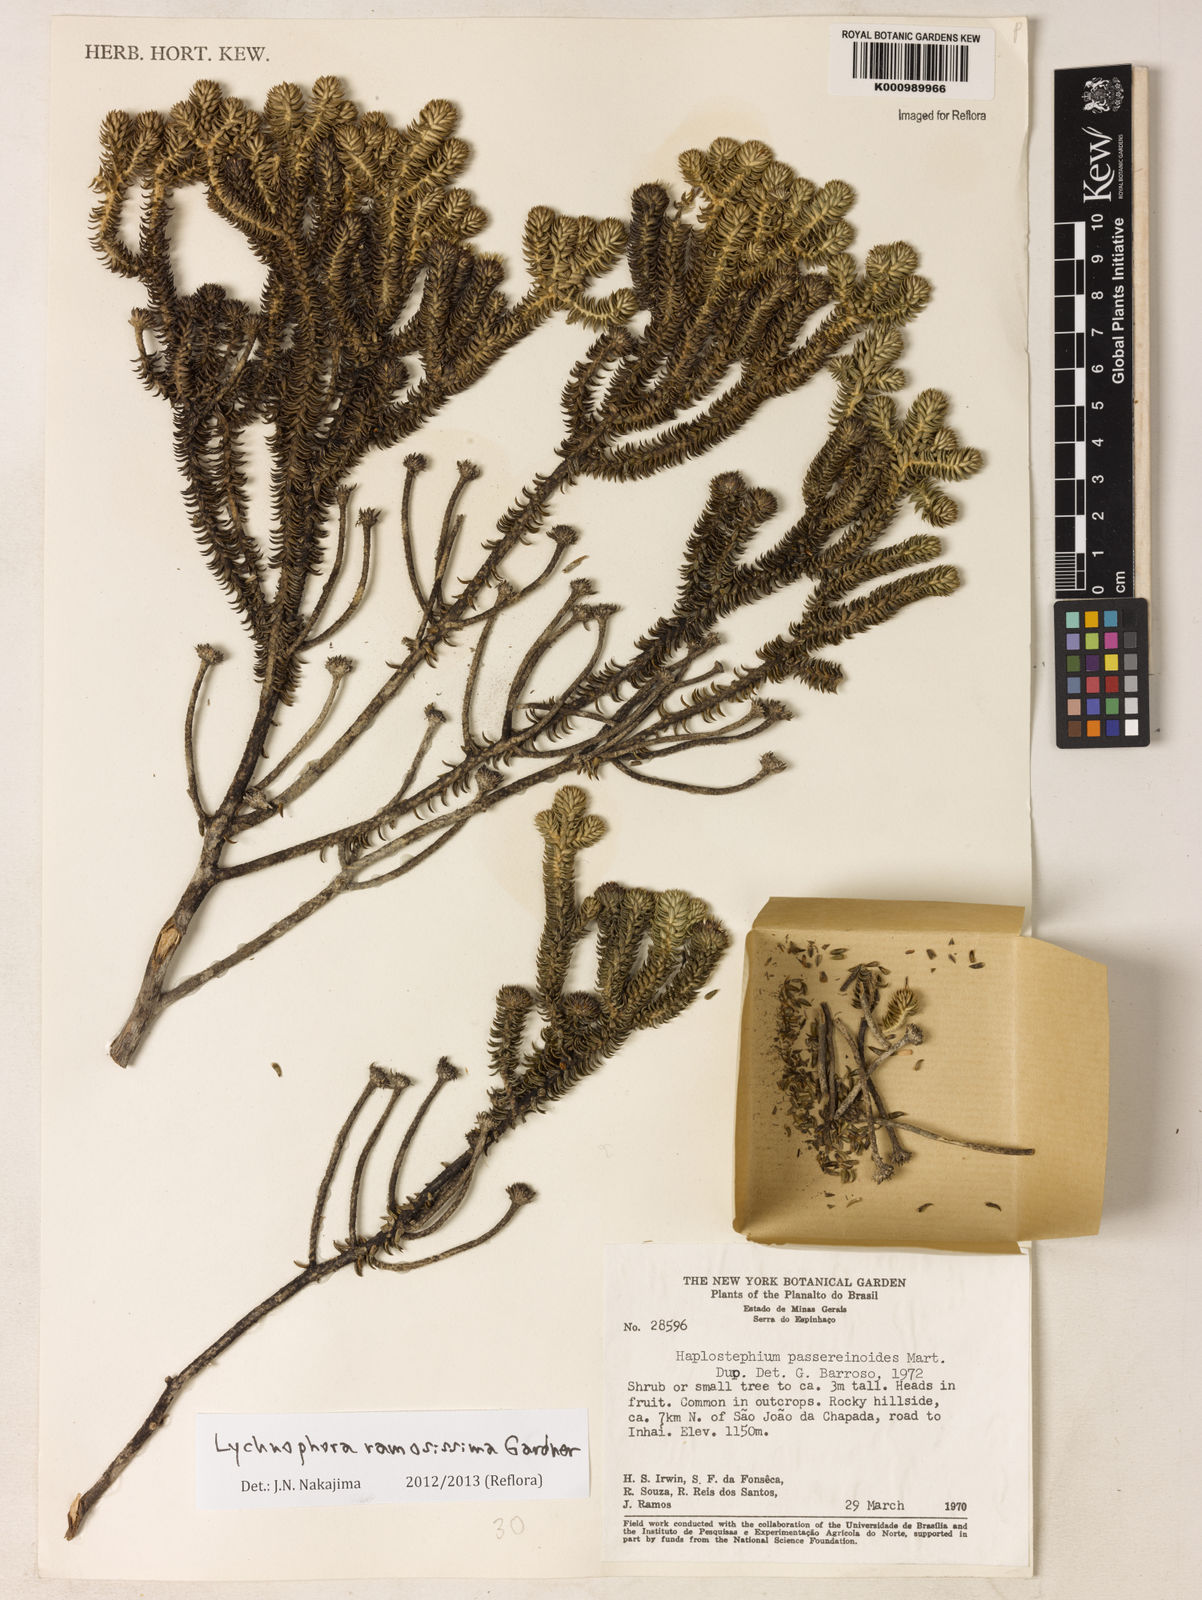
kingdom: Plantae
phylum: Tracheophyta
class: Magnoliopsida
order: Asterales
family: Asteraceae
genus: Lychnophora
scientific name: Lychnophora ramosissima
